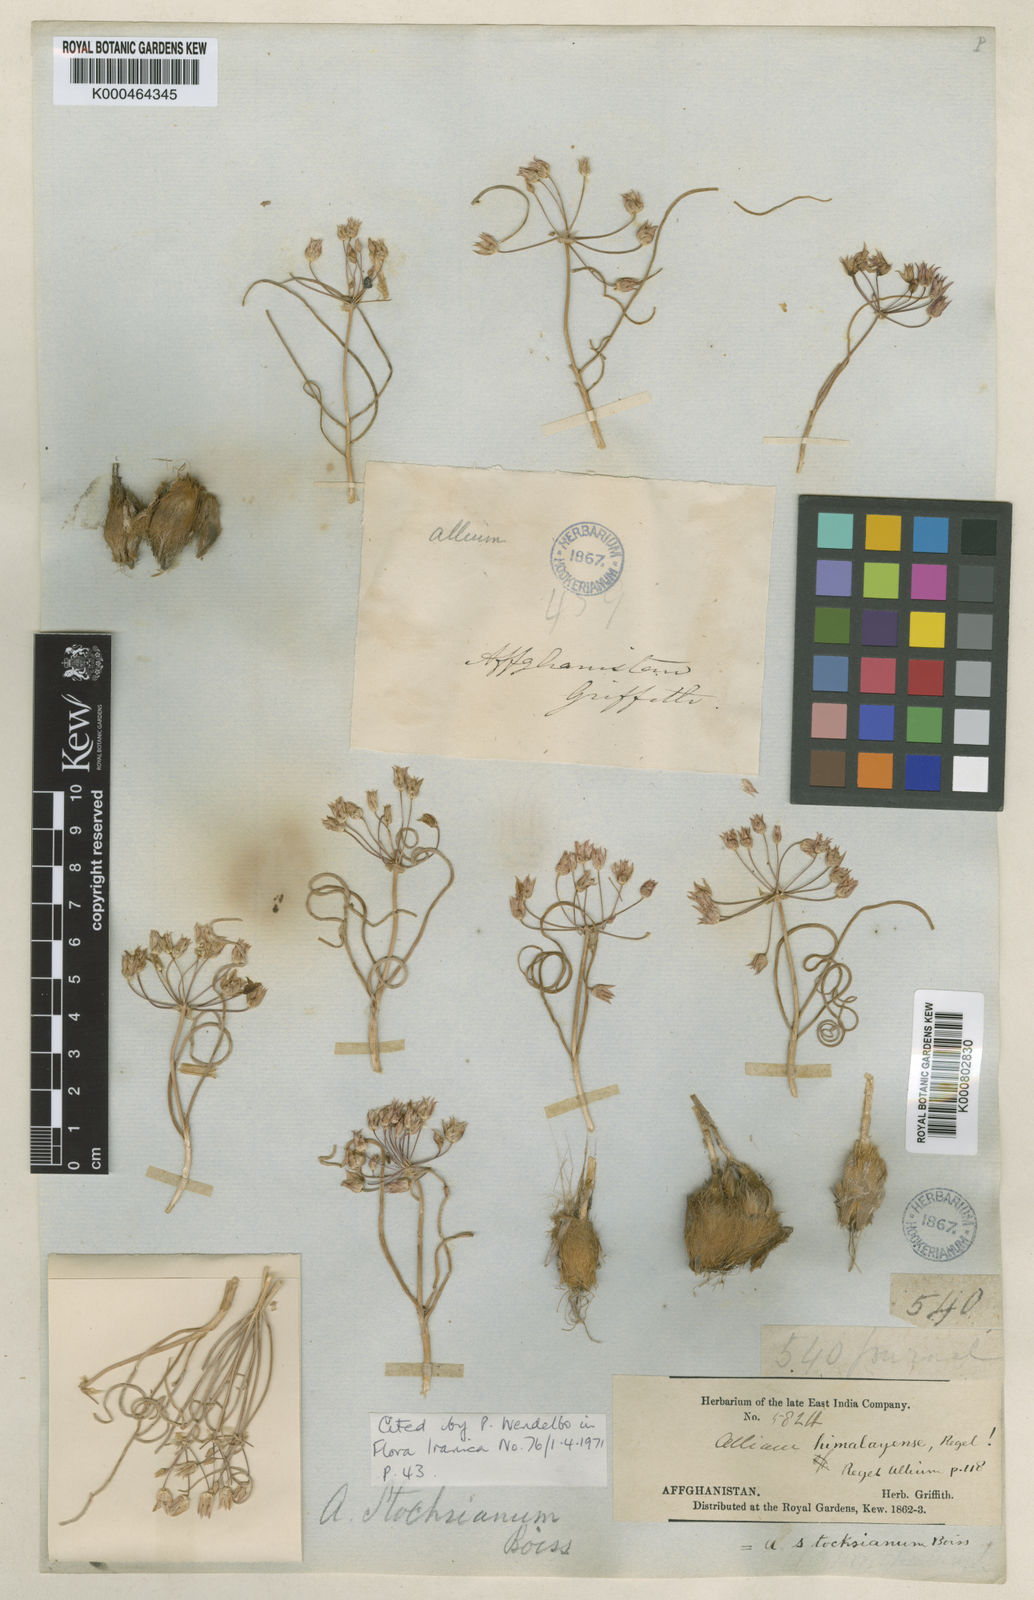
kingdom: Plantae
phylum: Tracheophyta
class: Liliopsida
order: Asparagales
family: Amaryllidaceae
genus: Allium
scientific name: Allium stocksianum
